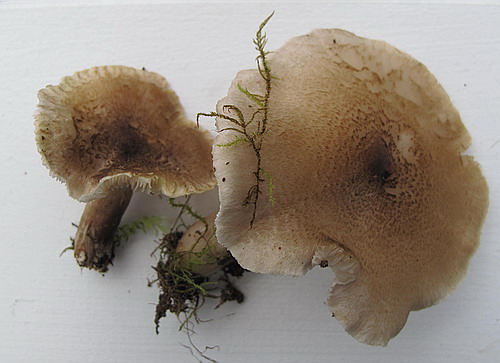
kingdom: Fungi
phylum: Basidiomycota
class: Agaricomycetes
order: Agaricales
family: Tricholomataceae
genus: Tricholoma
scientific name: Tricholoma scalpturatum
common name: gulplettet ridderhat
